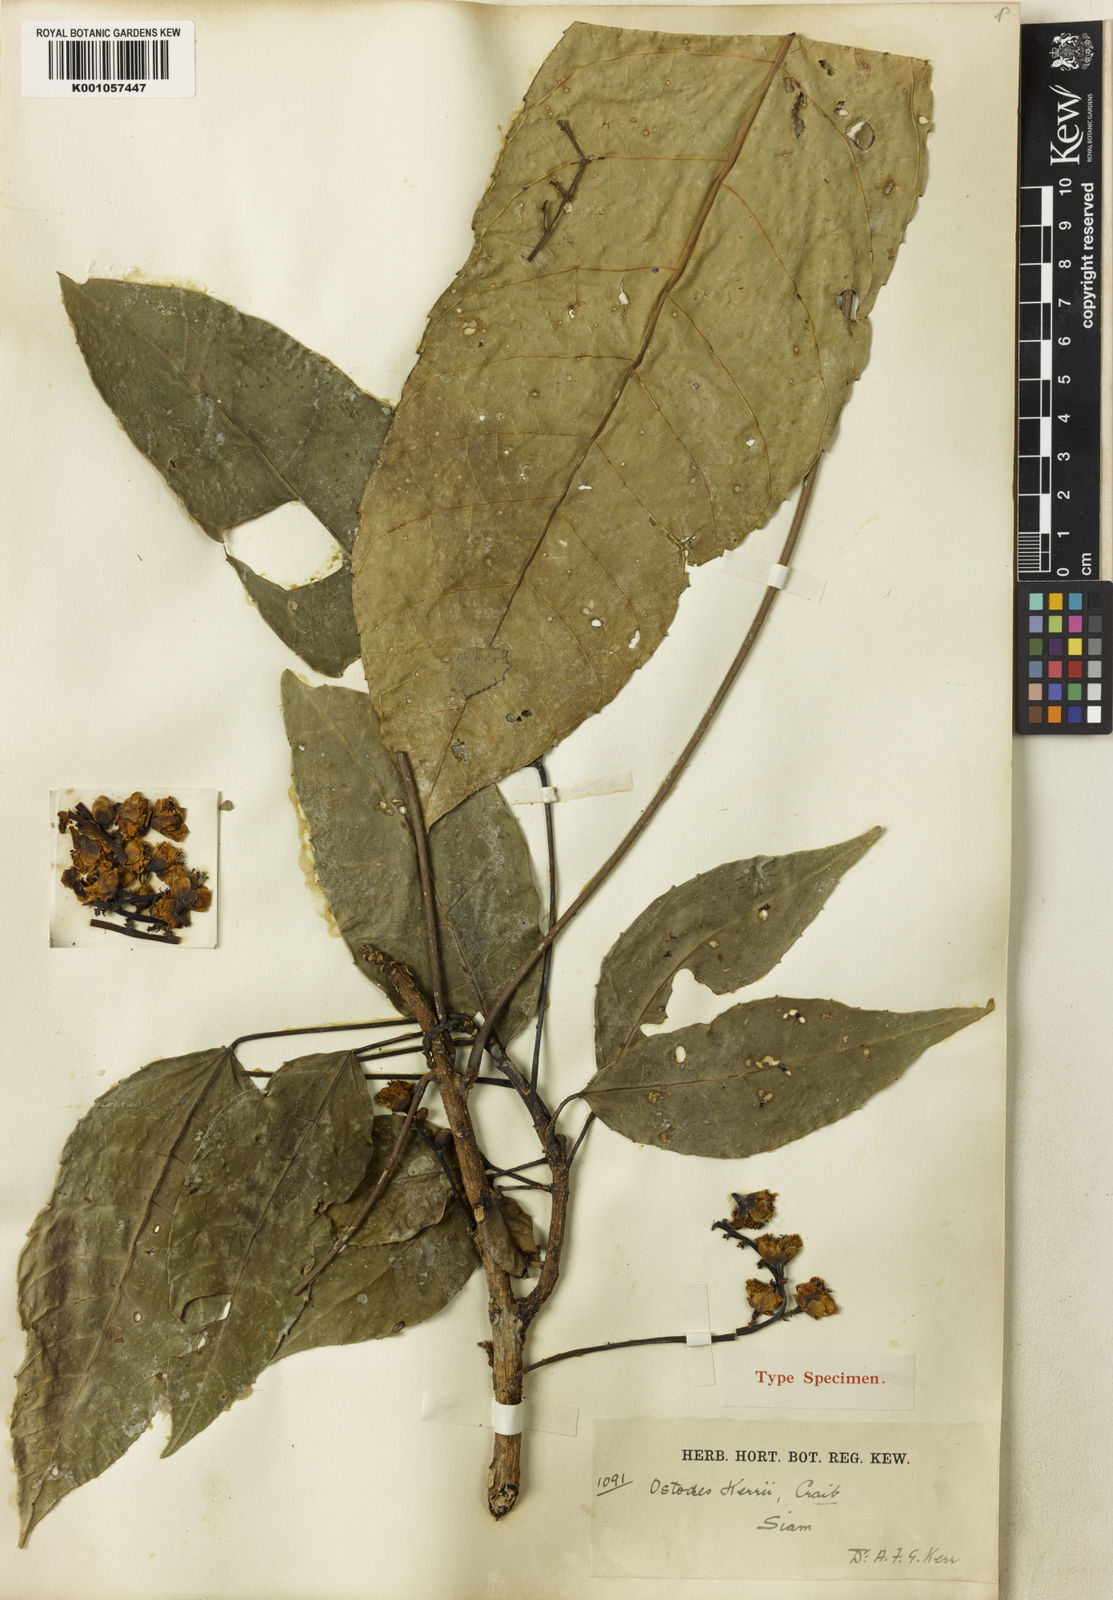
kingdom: Plantae
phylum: Tracheophyta
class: Magnoliopsida
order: Malpighiales
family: Euphorbiaceae
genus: Ostodes
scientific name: Ostodes paniculata
